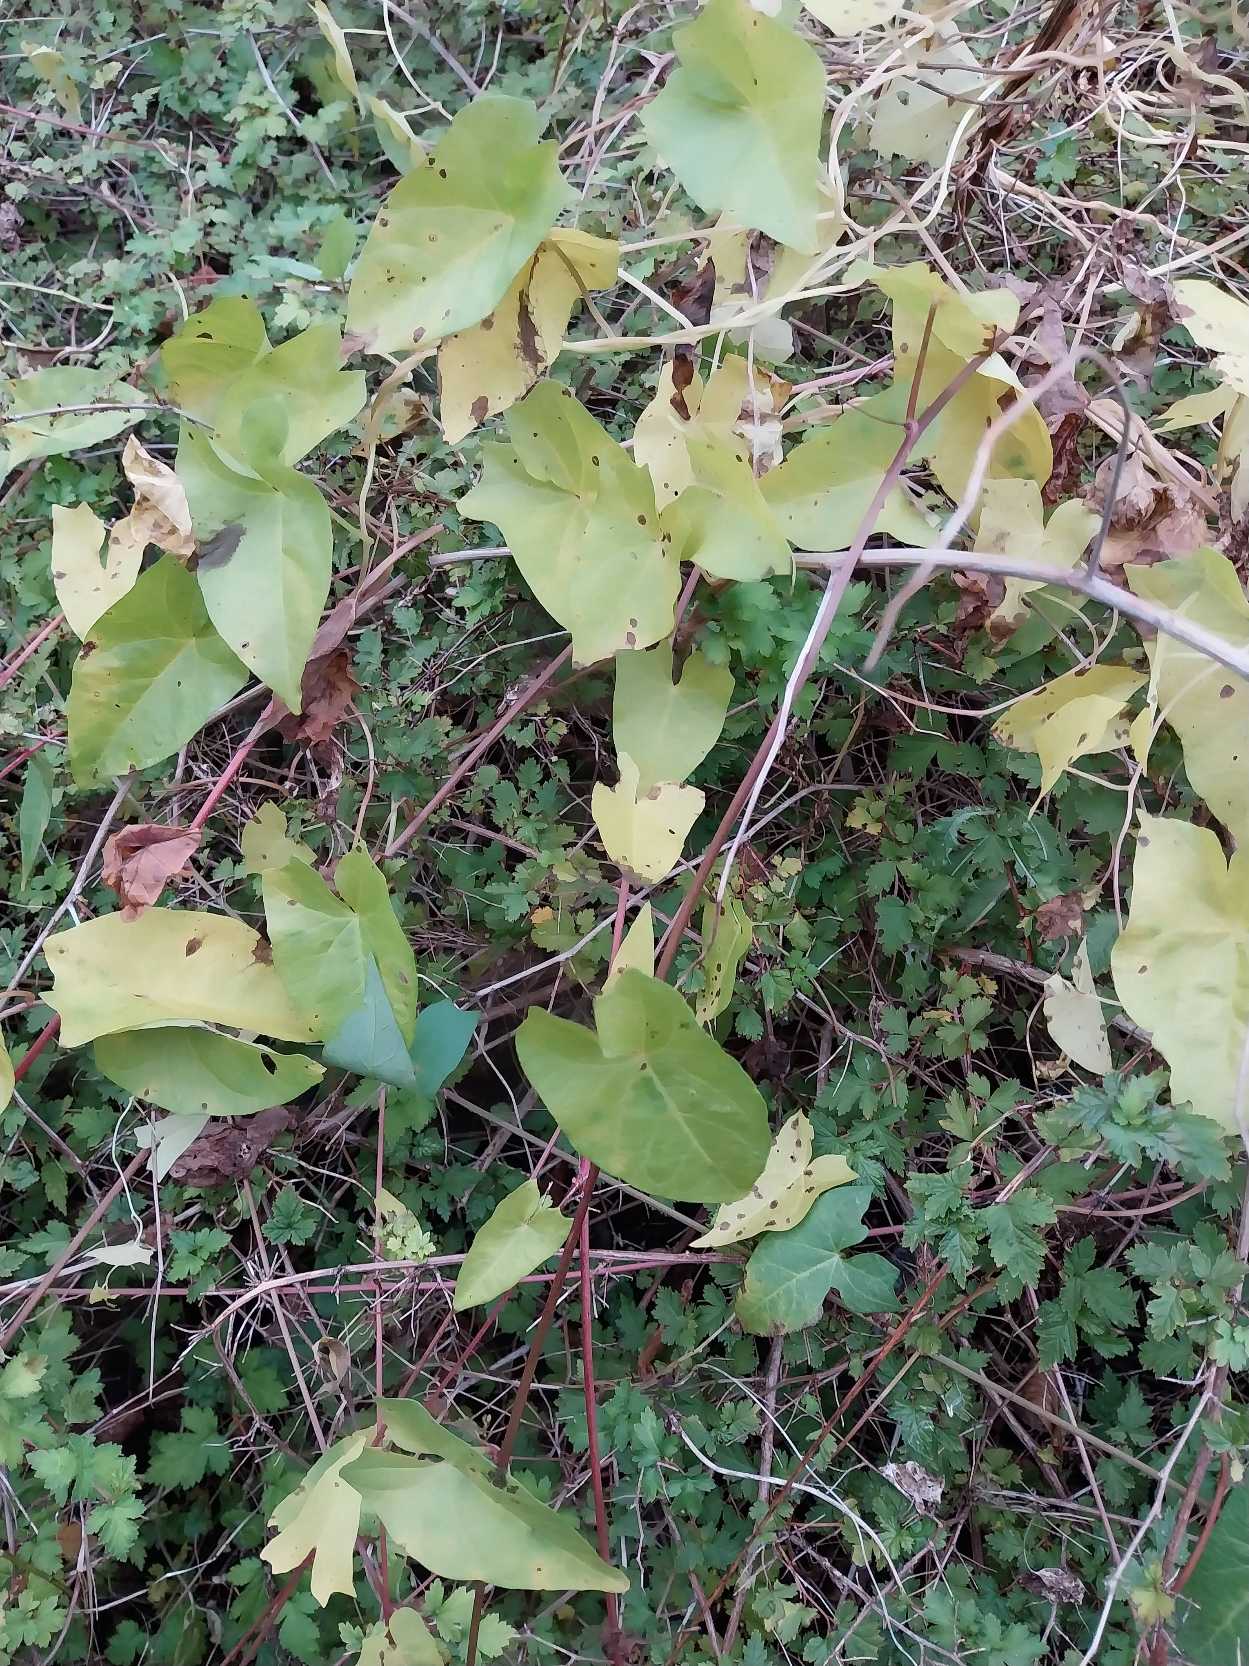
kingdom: Plantae
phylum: Tracheophyta
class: Magnoliopsida
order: Solanales
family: Convolvulaceae
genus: Calystegia
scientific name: Calystegia sepium
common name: Gærde-snerle
